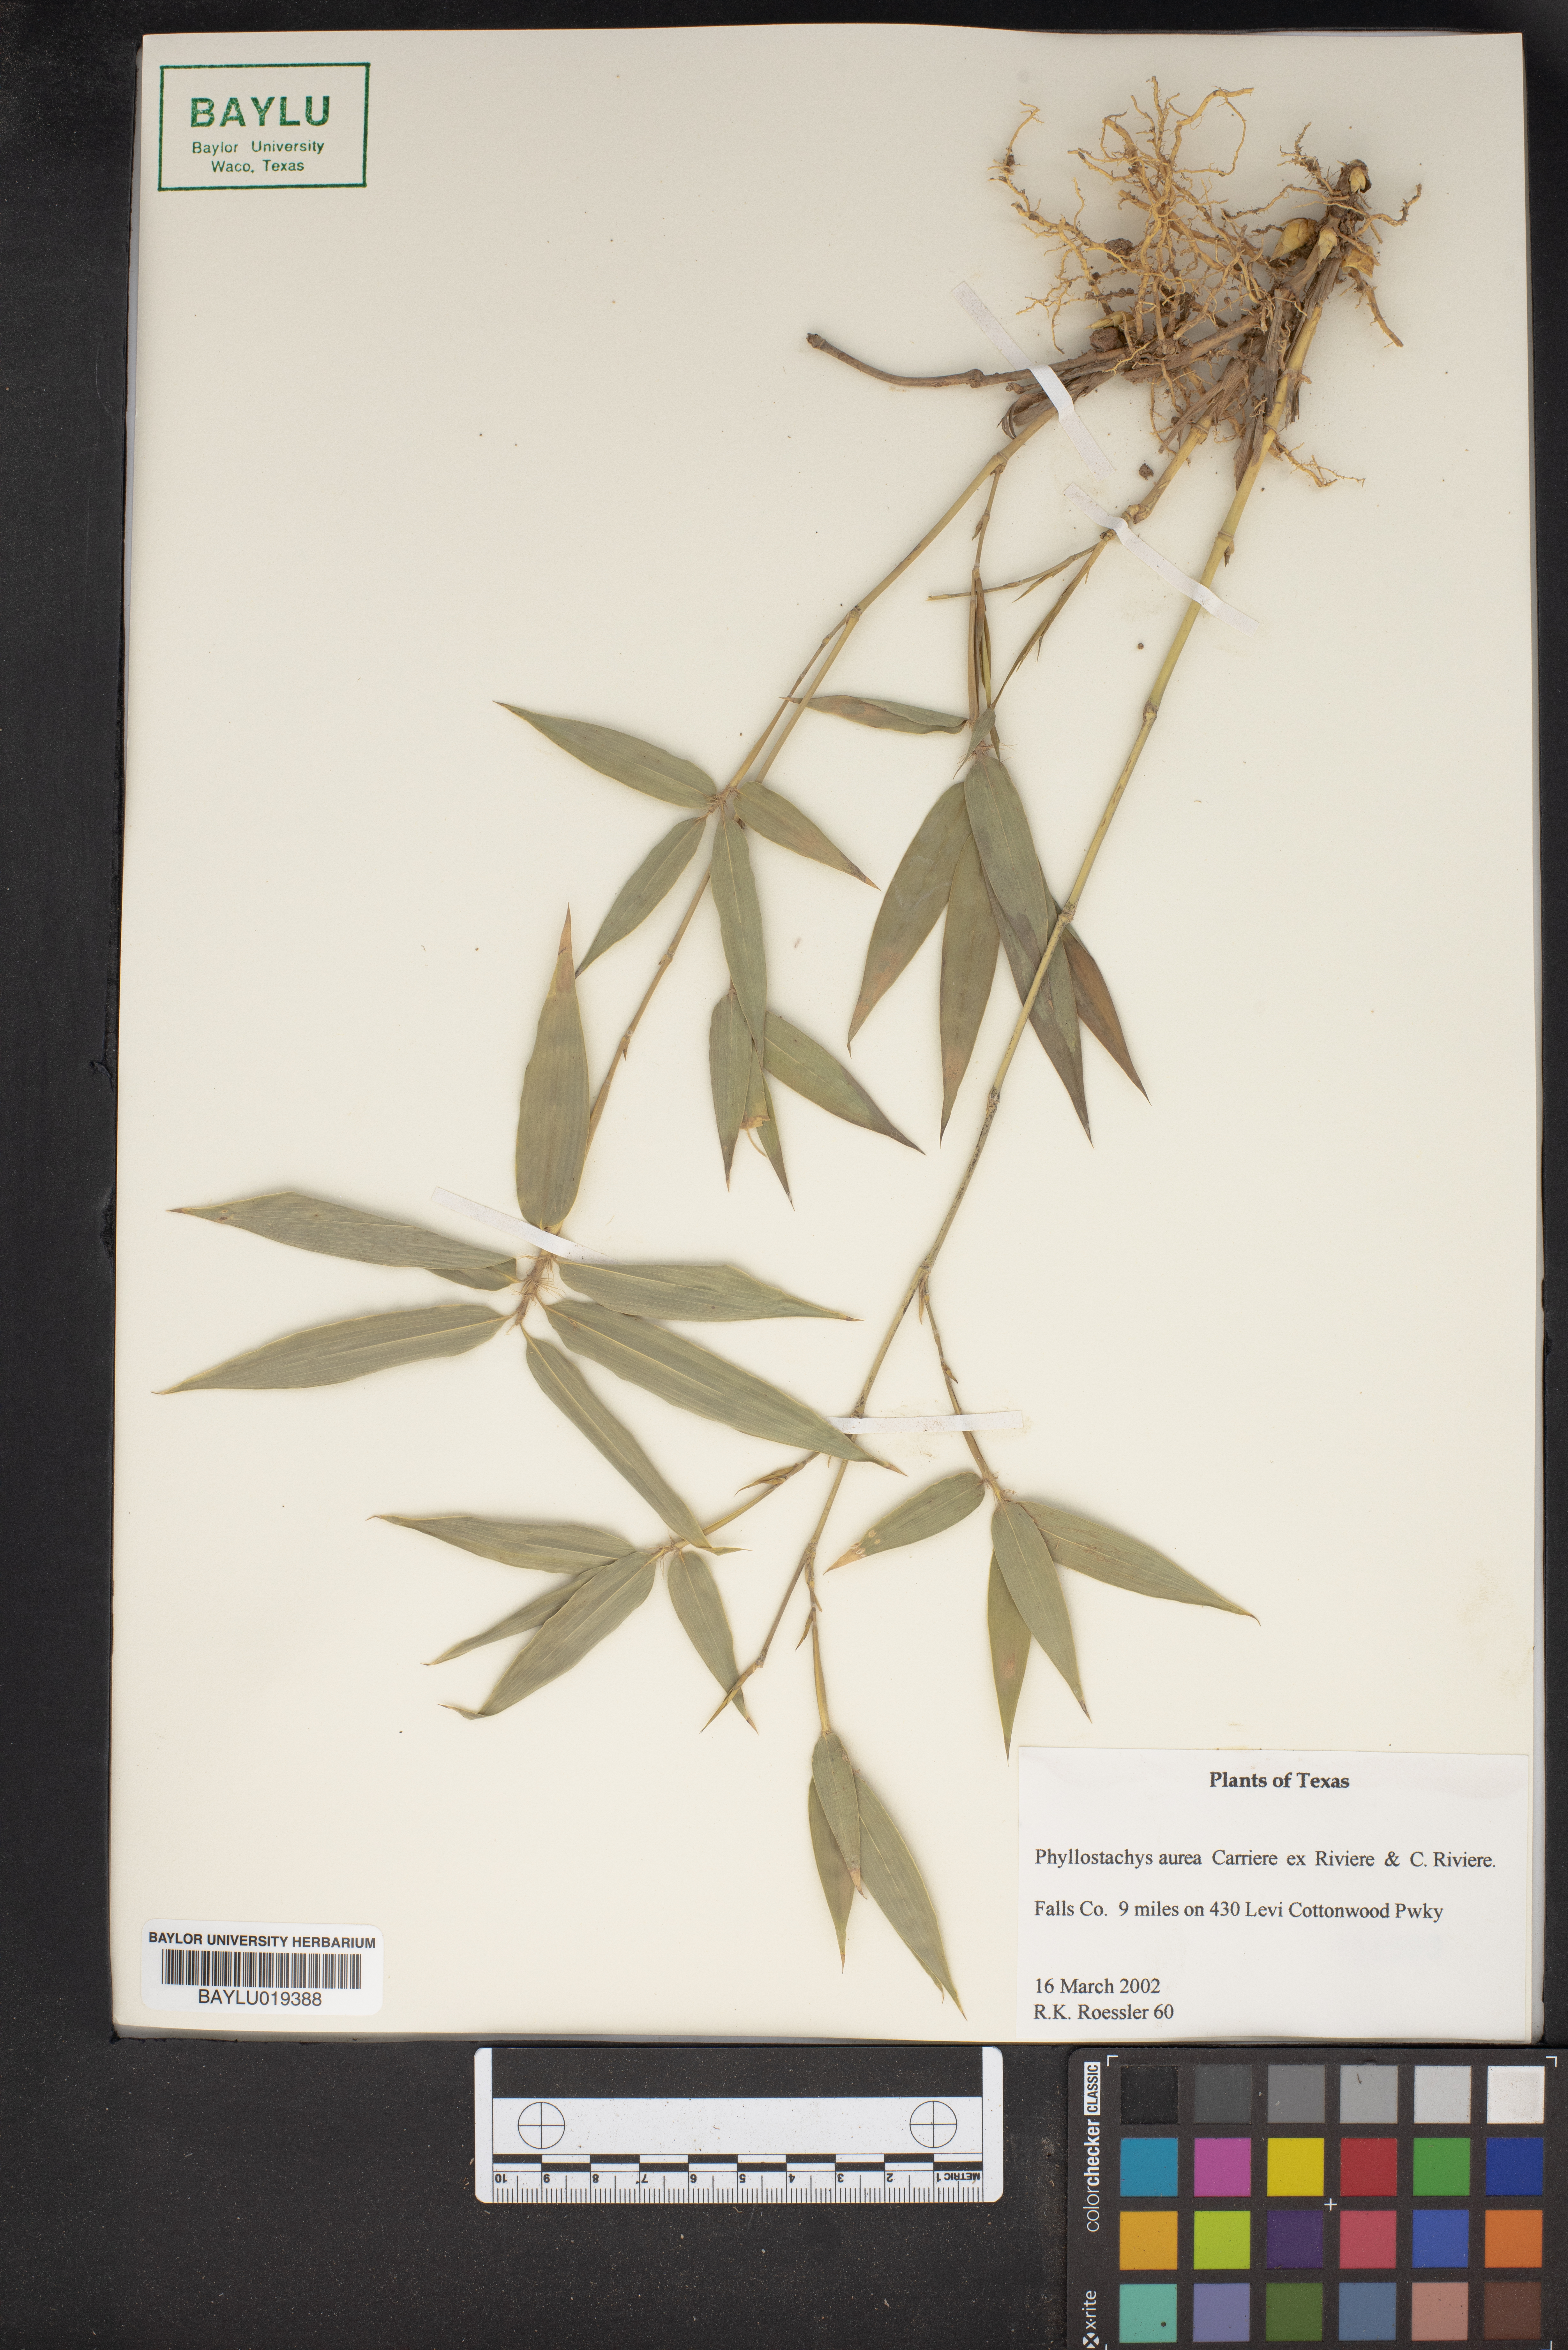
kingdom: Plantae
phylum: Tracheophyta
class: Liliopsida
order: Poales
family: Poaceae
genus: Phyllostachys
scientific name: Phyllostachys aurea
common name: Golden bamboo
